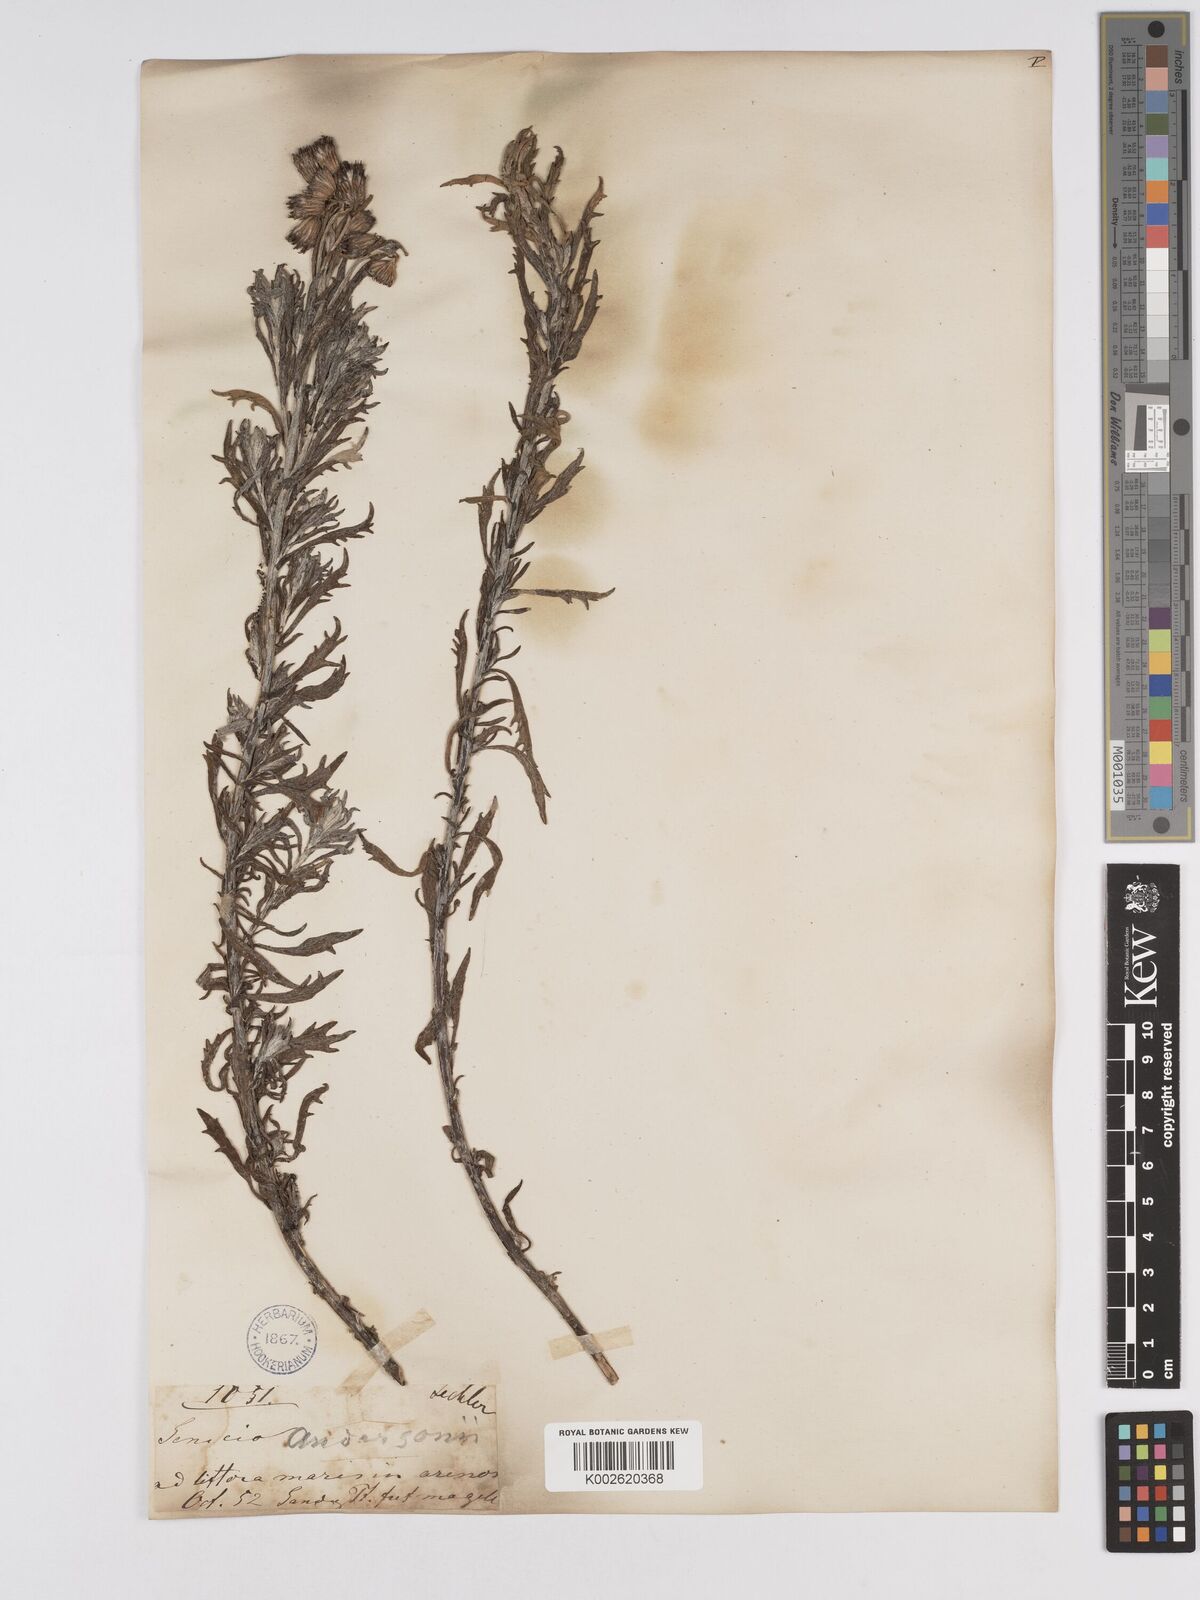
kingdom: Plantae
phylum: Tracheophyta
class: Magnoliopsida
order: Asterales
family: Asteraceae
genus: Senecio
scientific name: Senecio patagonicus
